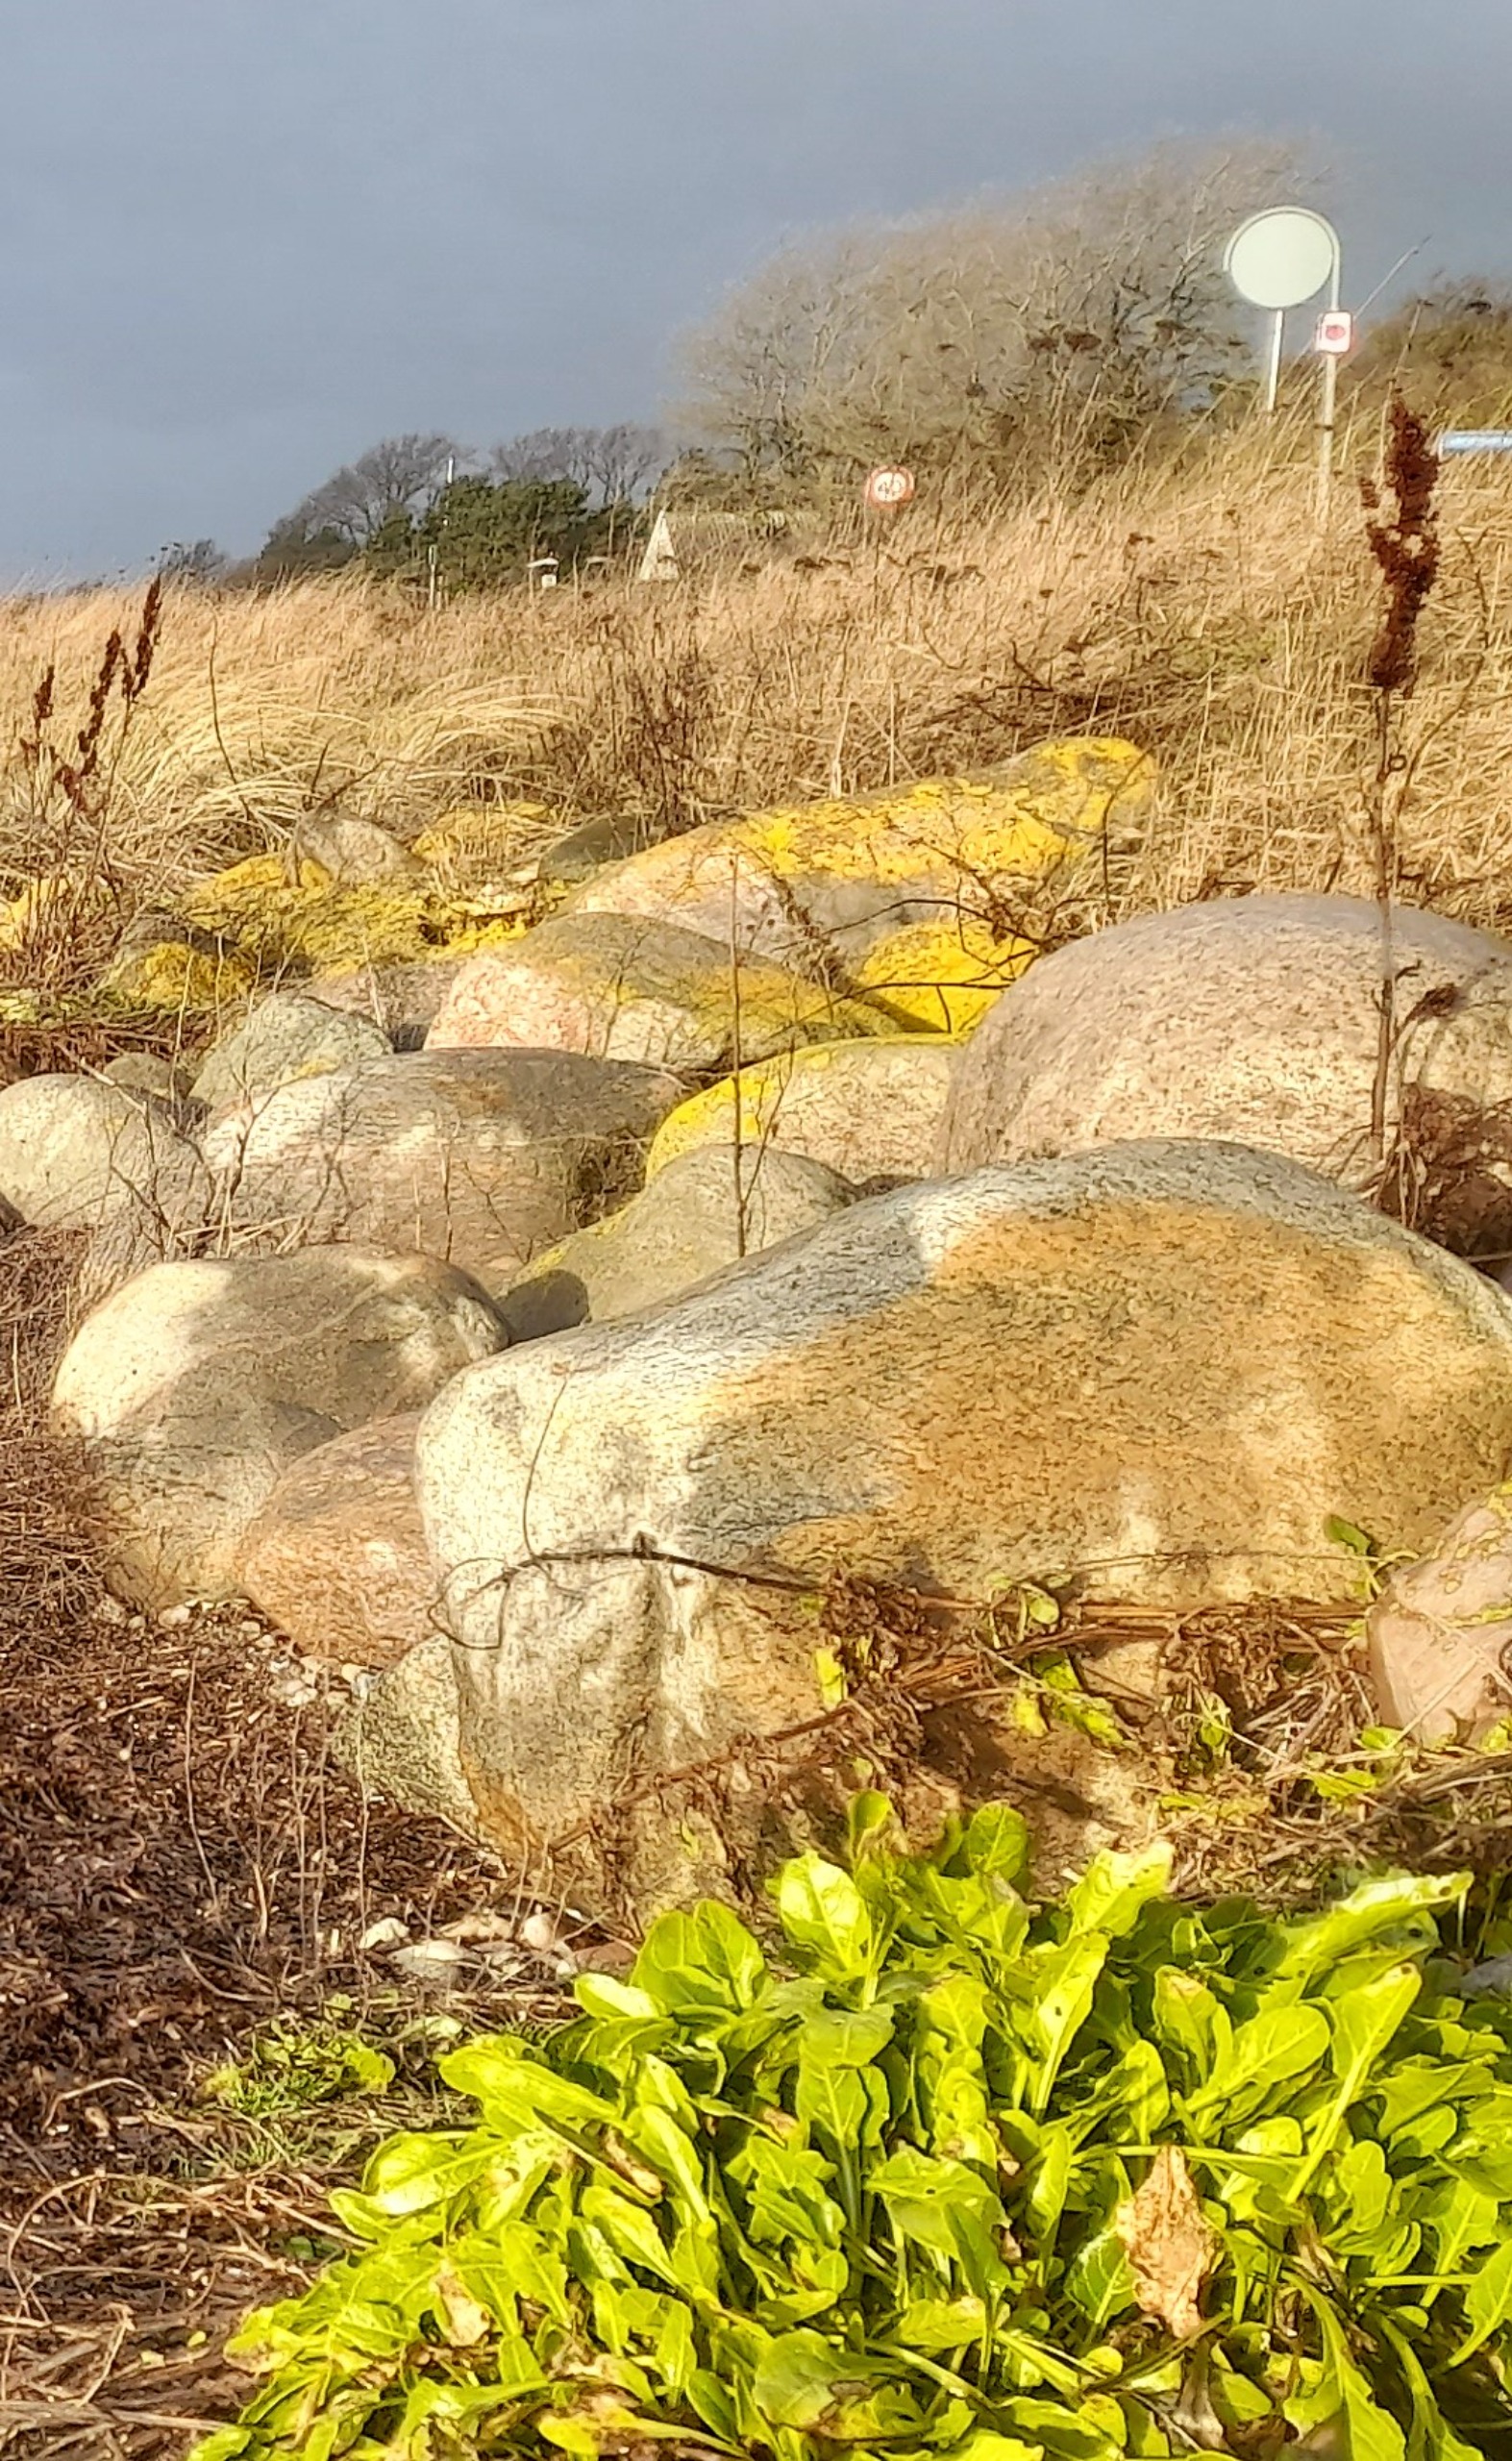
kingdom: Plantae
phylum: Tracheophyta
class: Magnoliopsida
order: Caryophyllales
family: Amaranthaceae
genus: Beta
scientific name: Beta vulgaris
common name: Bede
